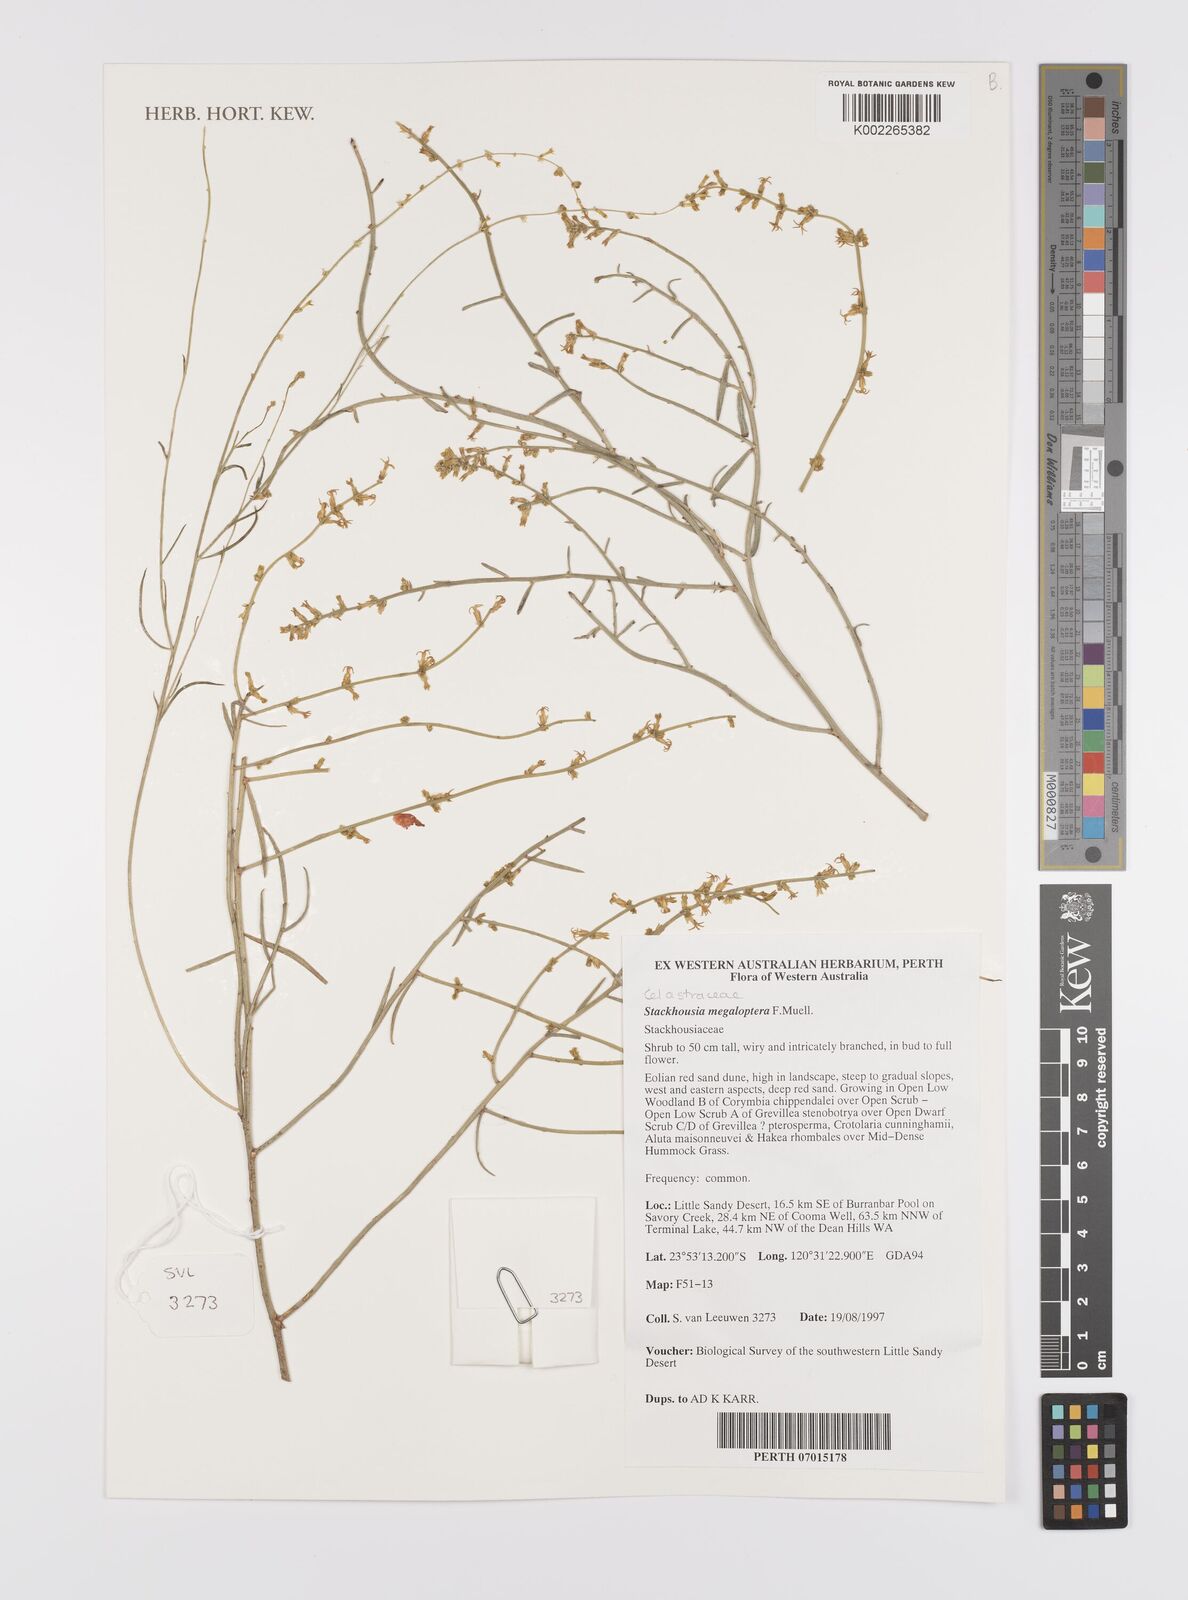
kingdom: Plantae
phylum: Tracheophyta
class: Magnoliopsida
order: Celastrales
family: Celastraceae
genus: Stackhousia
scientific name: Stackhousia megaloptera
